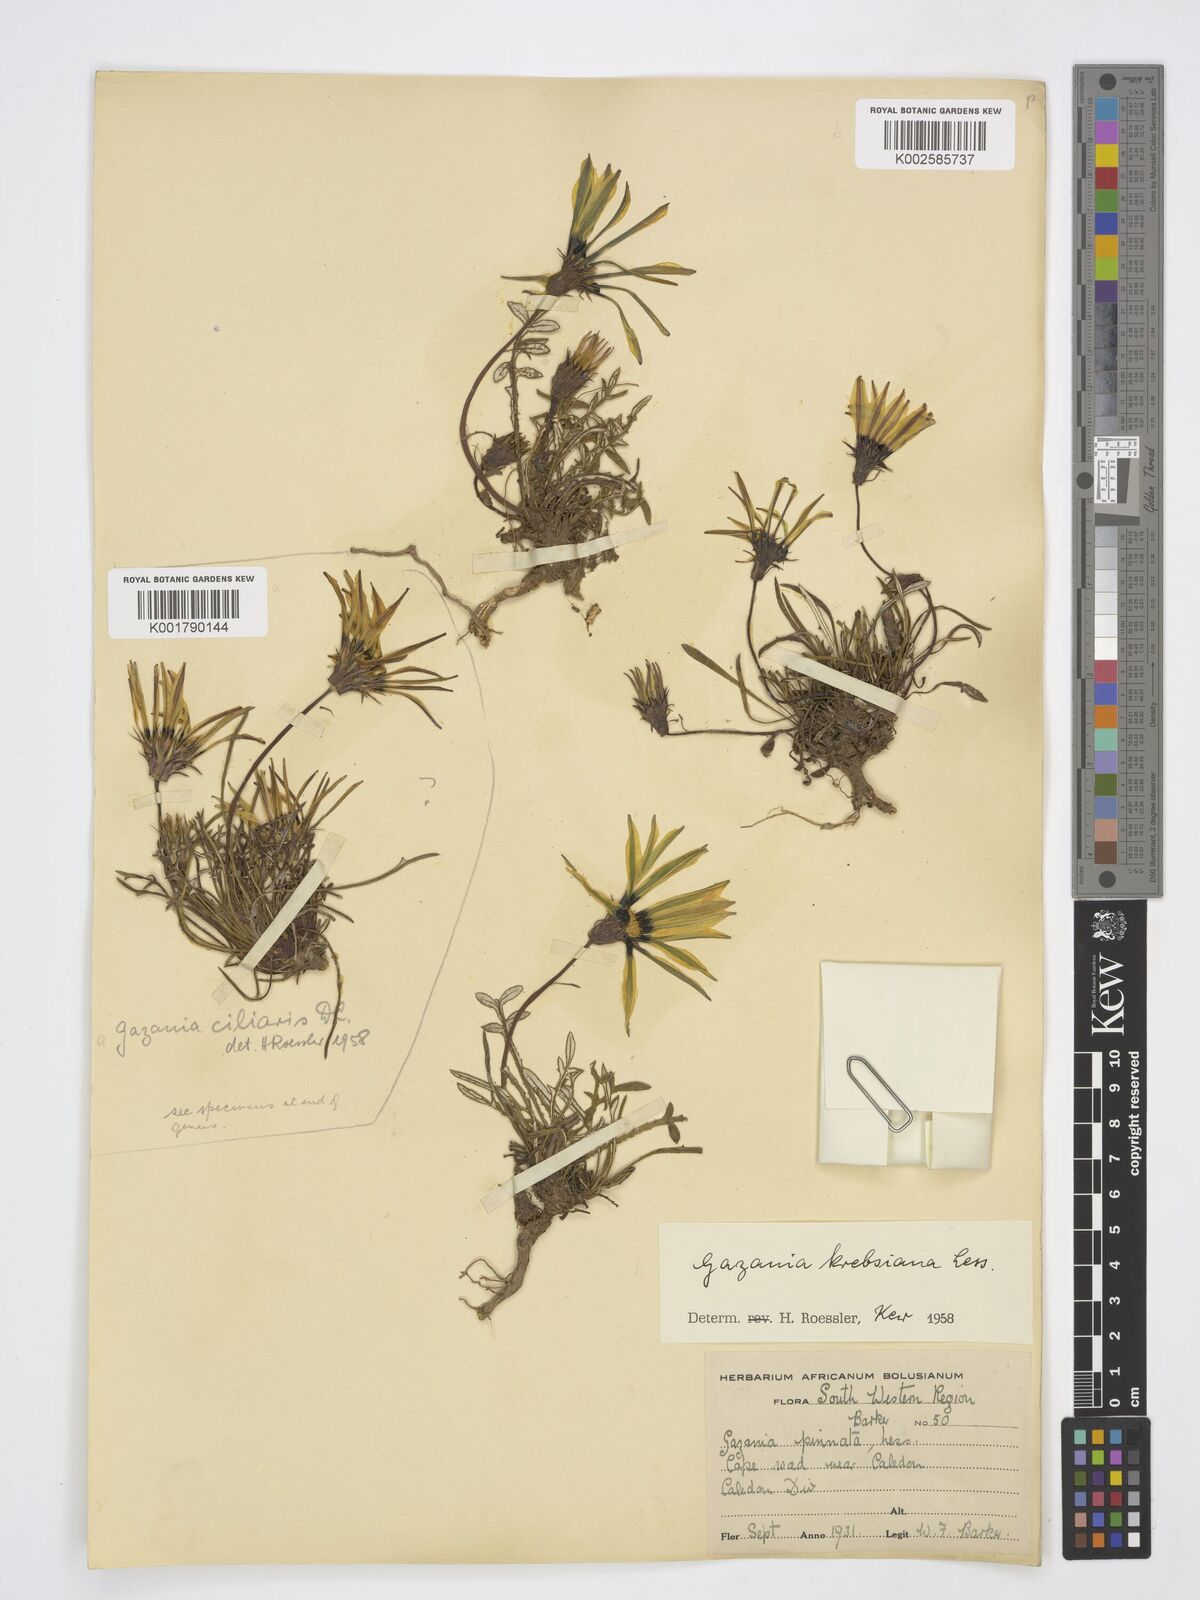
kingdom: Plantae
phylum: Tracheophyta
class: Magnoliopsida
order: Asterales
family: Asteraceae
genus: Gazania
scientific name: Gazania ciliaris
